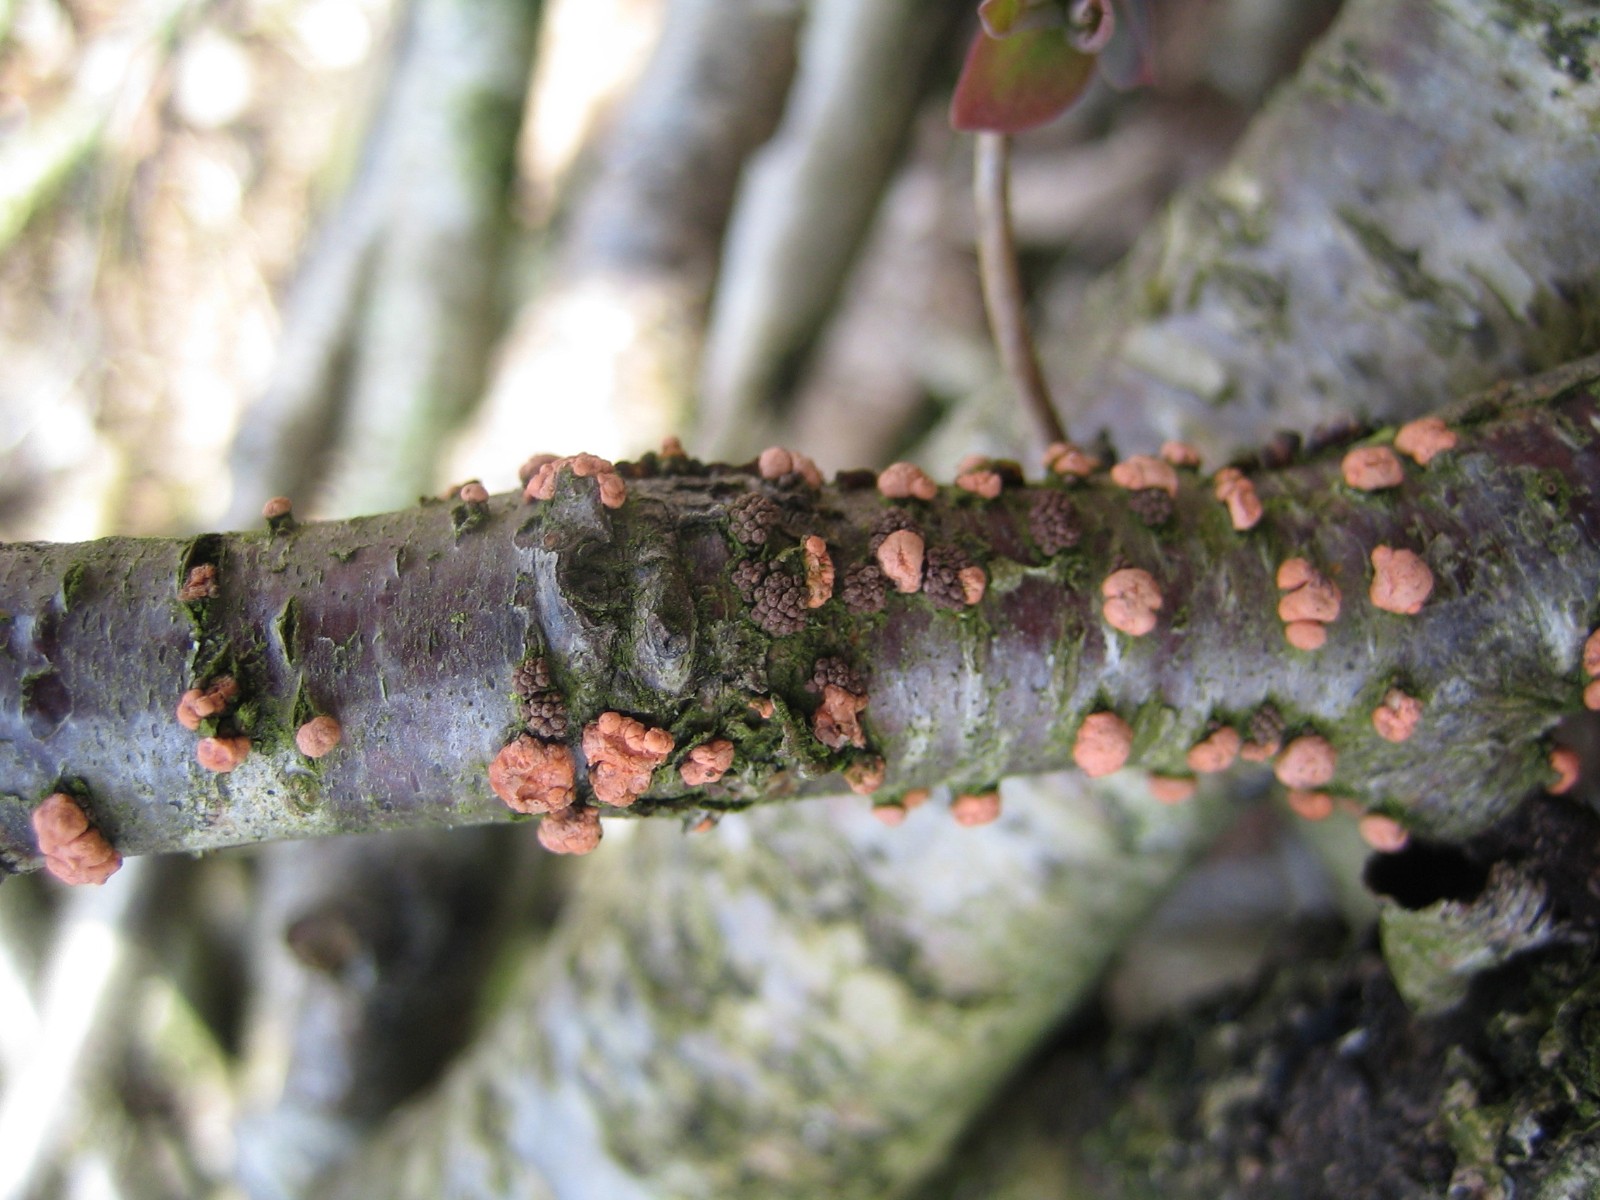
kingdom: Fungi
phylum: Ascomycota
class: Sordariomycetes
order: Hypocreales
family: Nectriaceae
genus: Nectria
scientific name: Nectria
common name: cinnobersvamp
